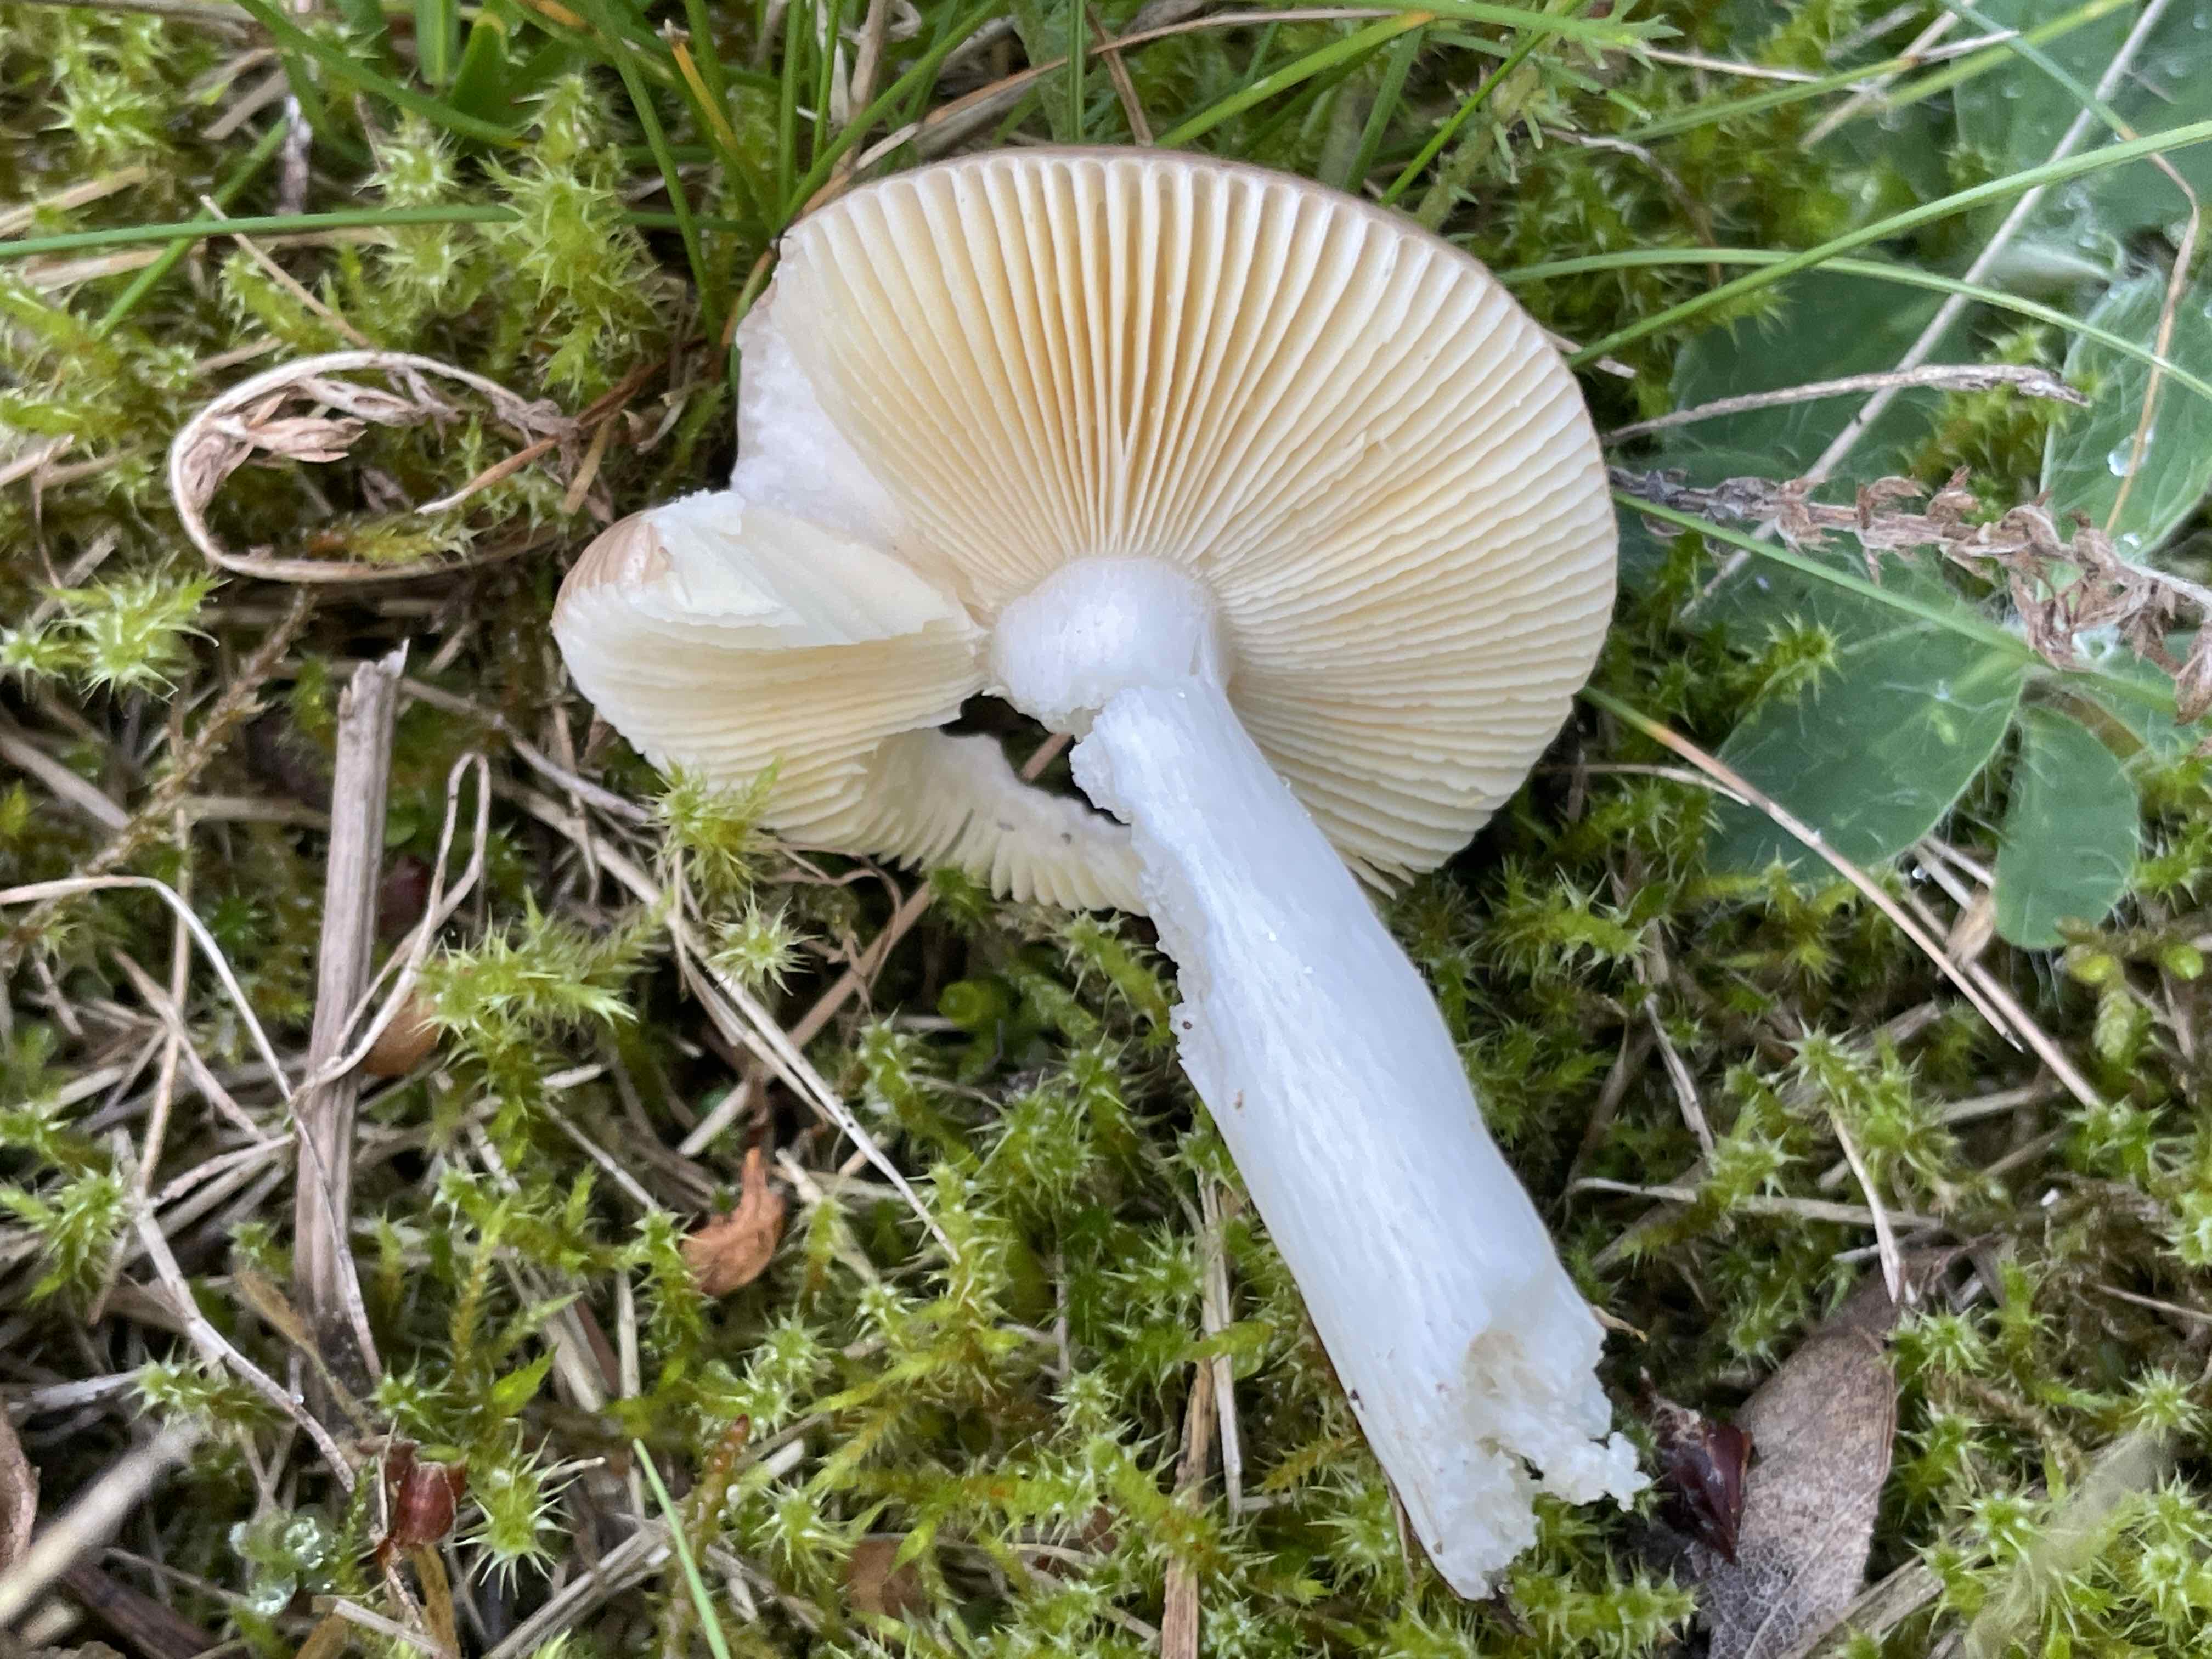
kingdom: Fungi
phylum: Basidiomycota
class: Agaricomycetes
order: Russulales
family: Russulaceae
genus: Russula
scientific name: Russula cessans
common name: fyrre-skørhat
